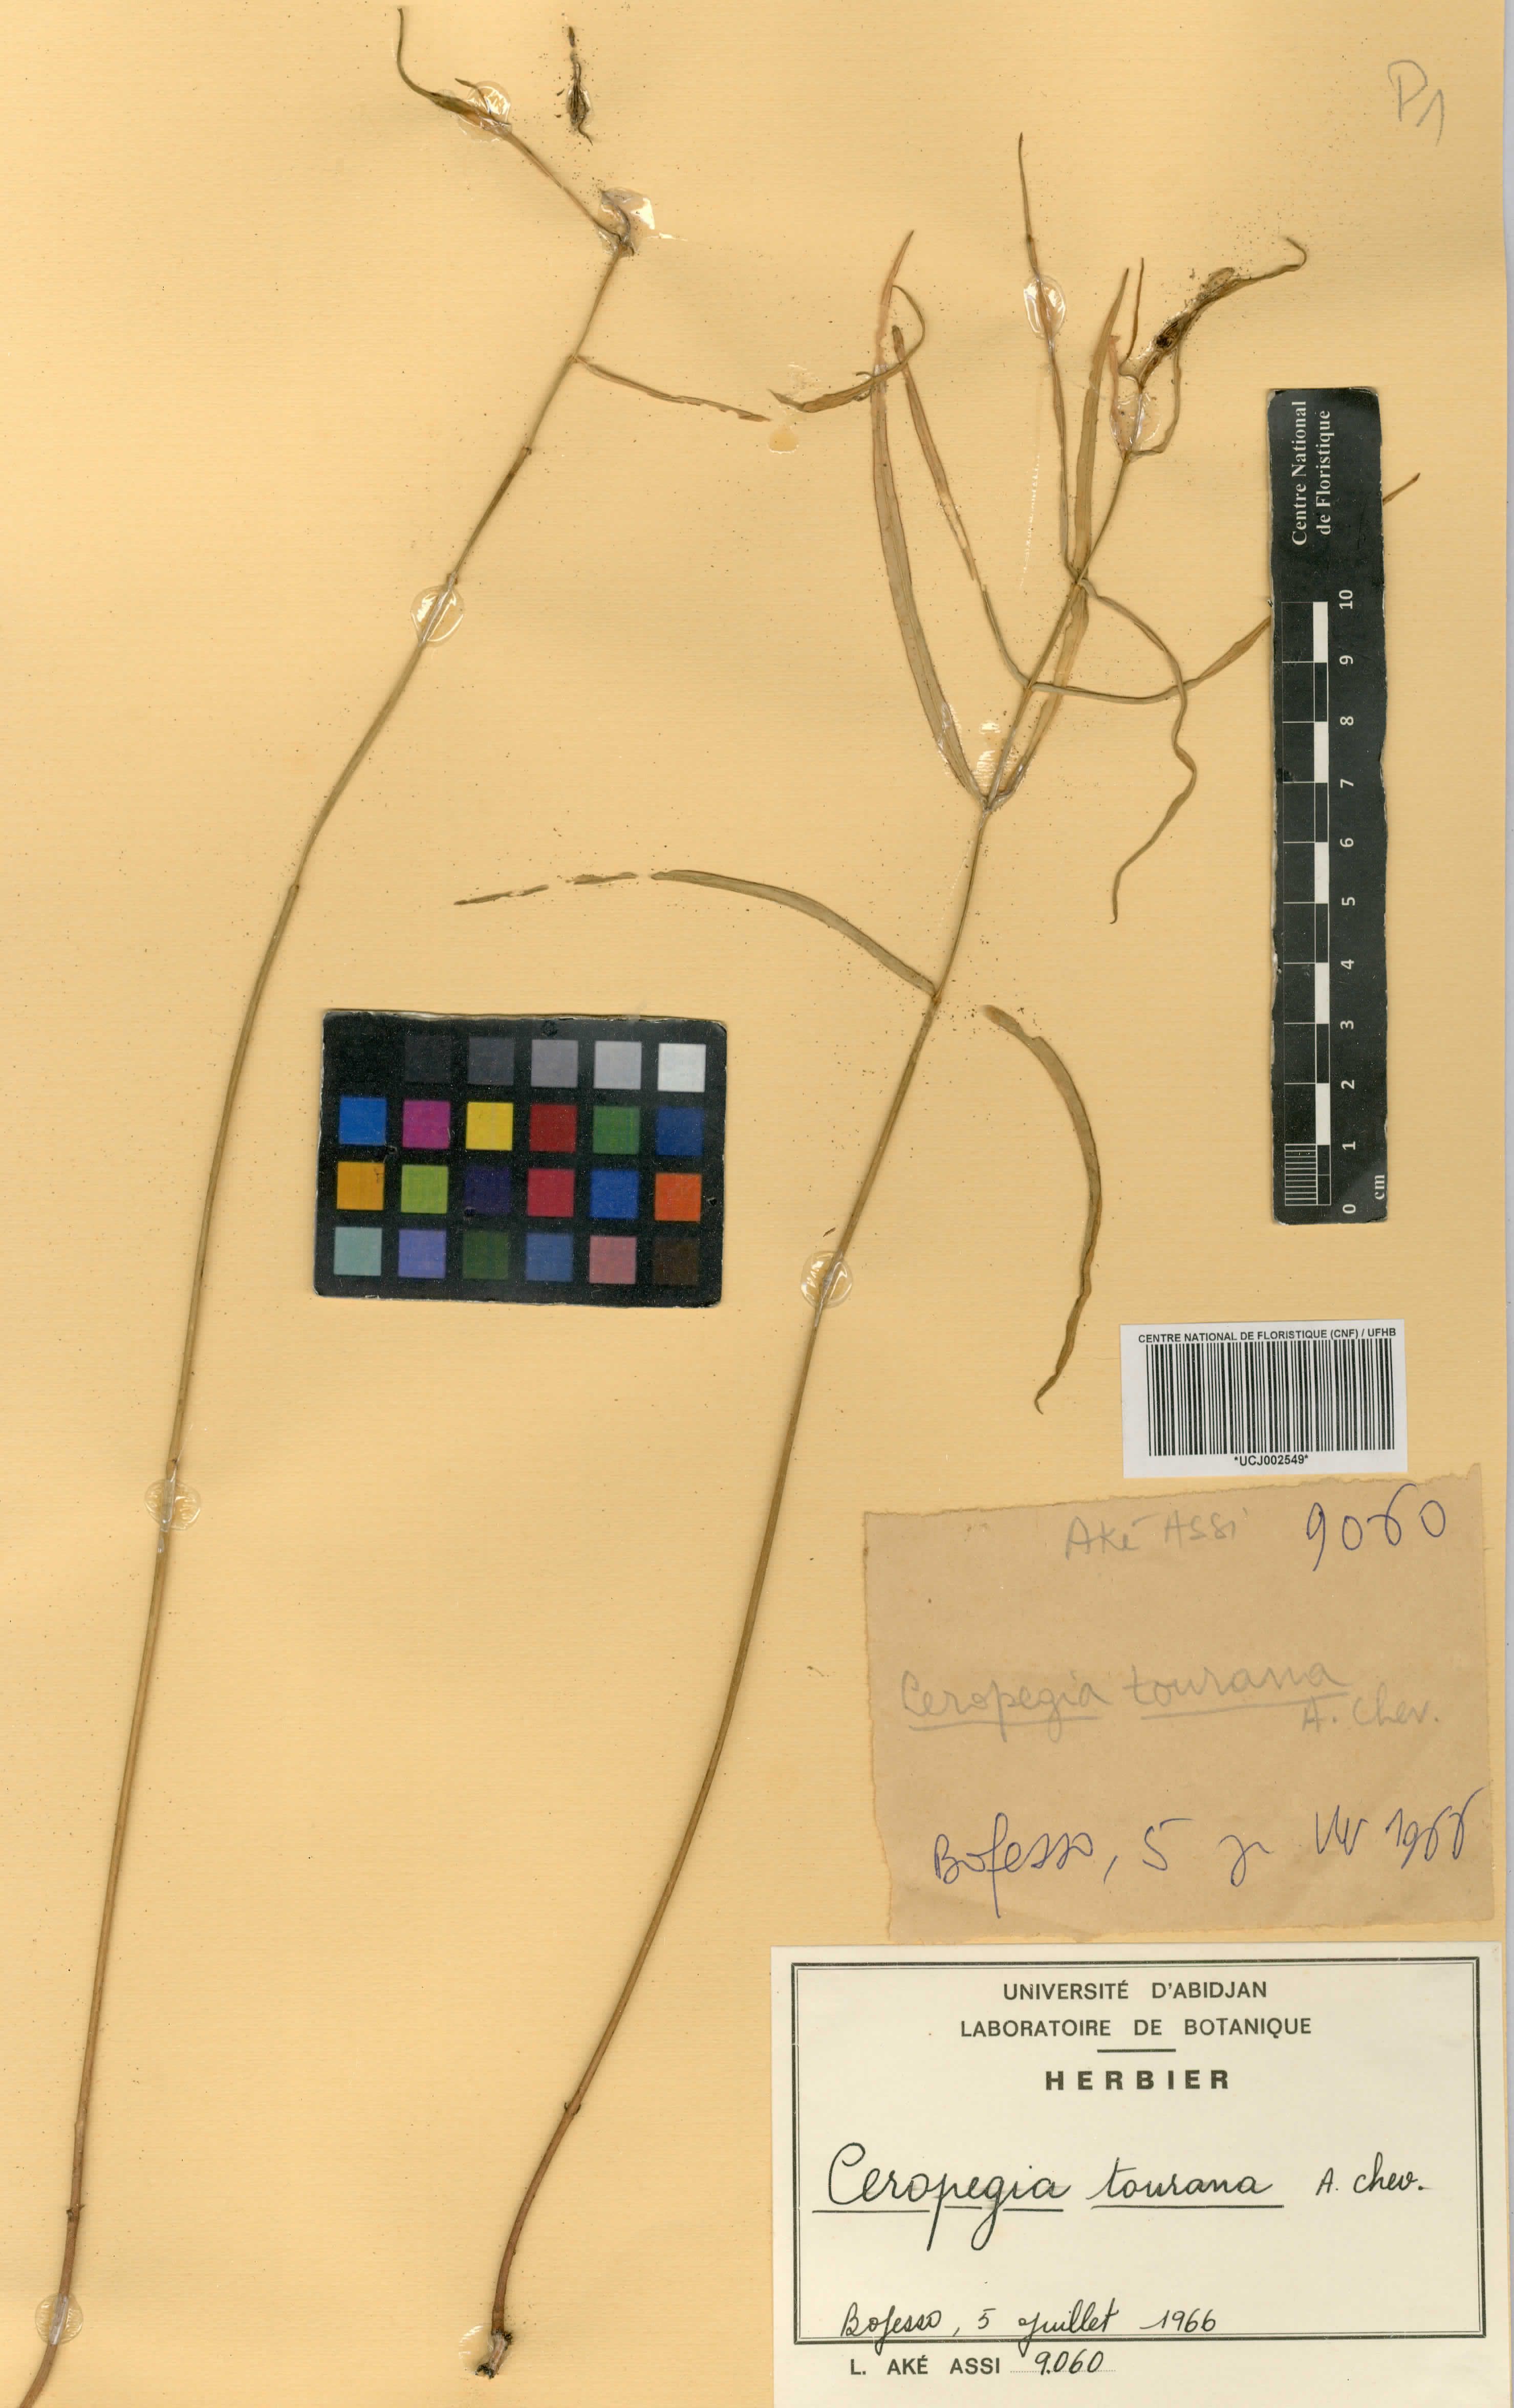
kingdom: Plantae
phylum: Tracheophyta
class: Magnoliopsida
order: Gentianales
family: Apocynaceae
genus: Ceropegia
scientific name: Ceropegia tourana
